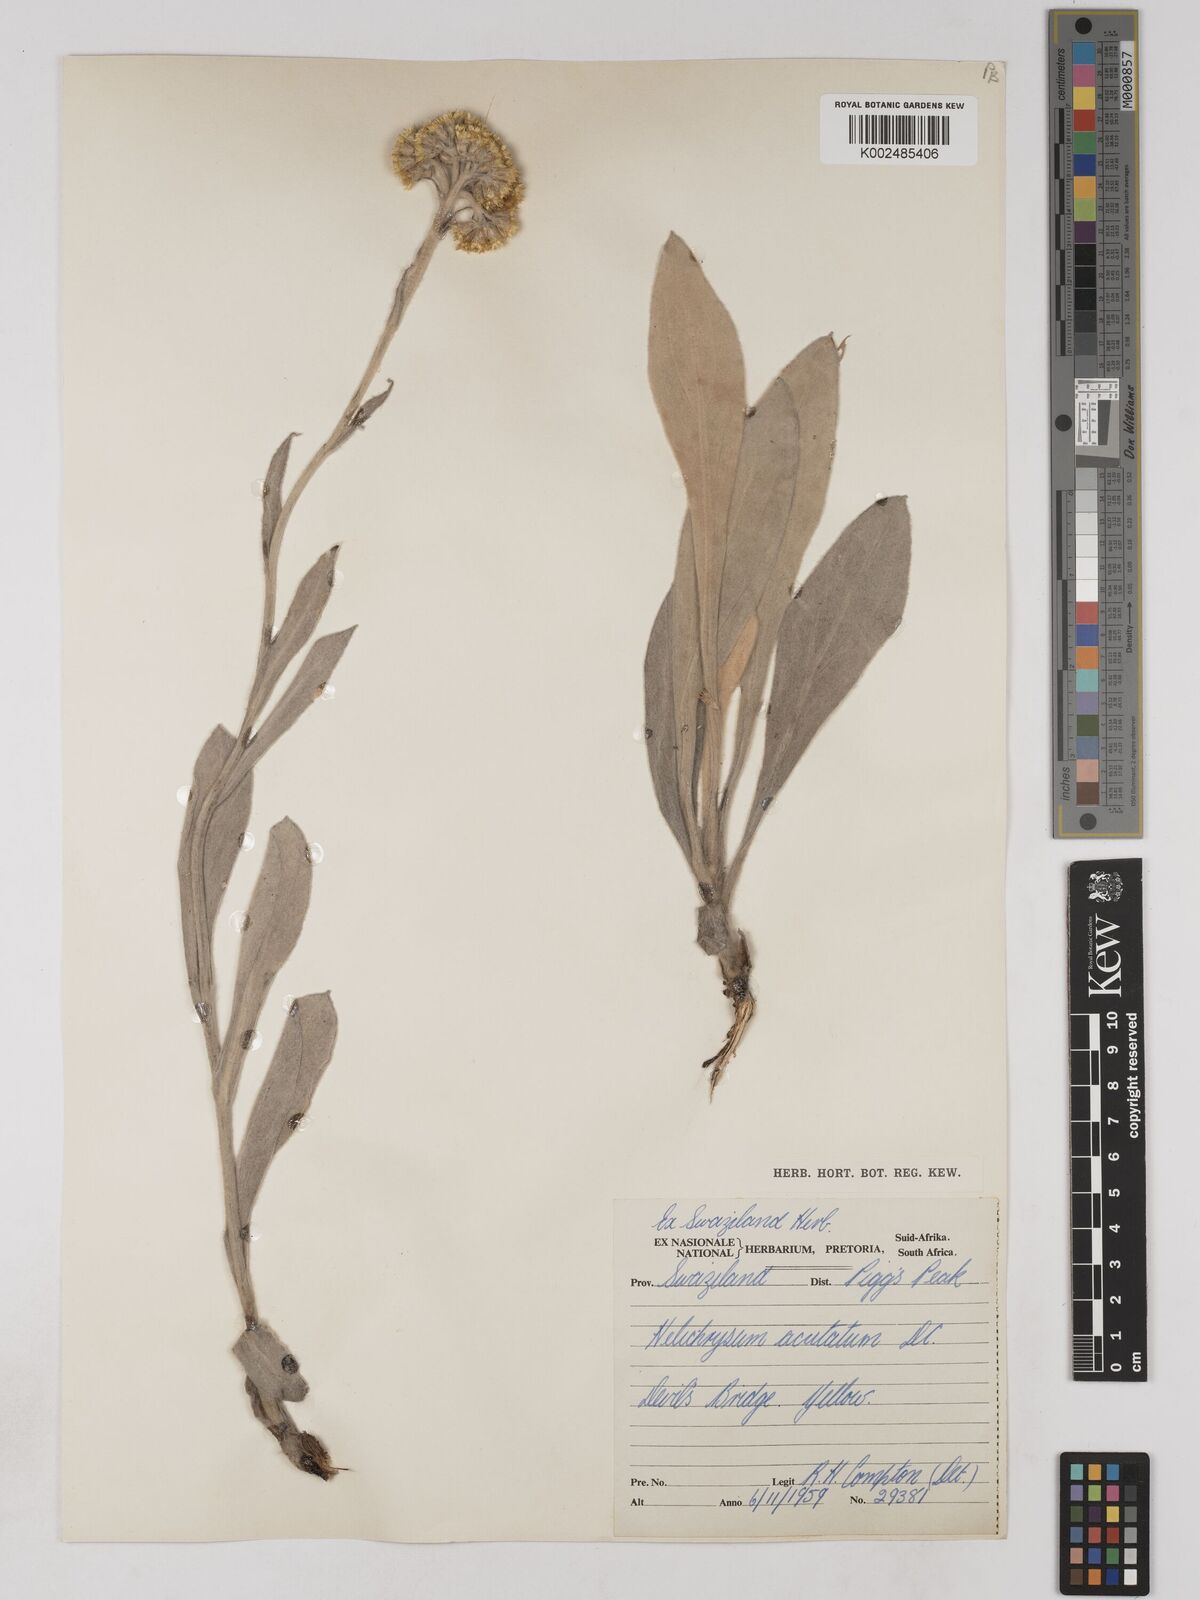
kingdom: Plantae
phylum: Tracheophyta
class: Magnoliopsida
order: Asterales
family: Asteraceae
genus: Helichrysum
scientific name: Helichrysum acutatum
